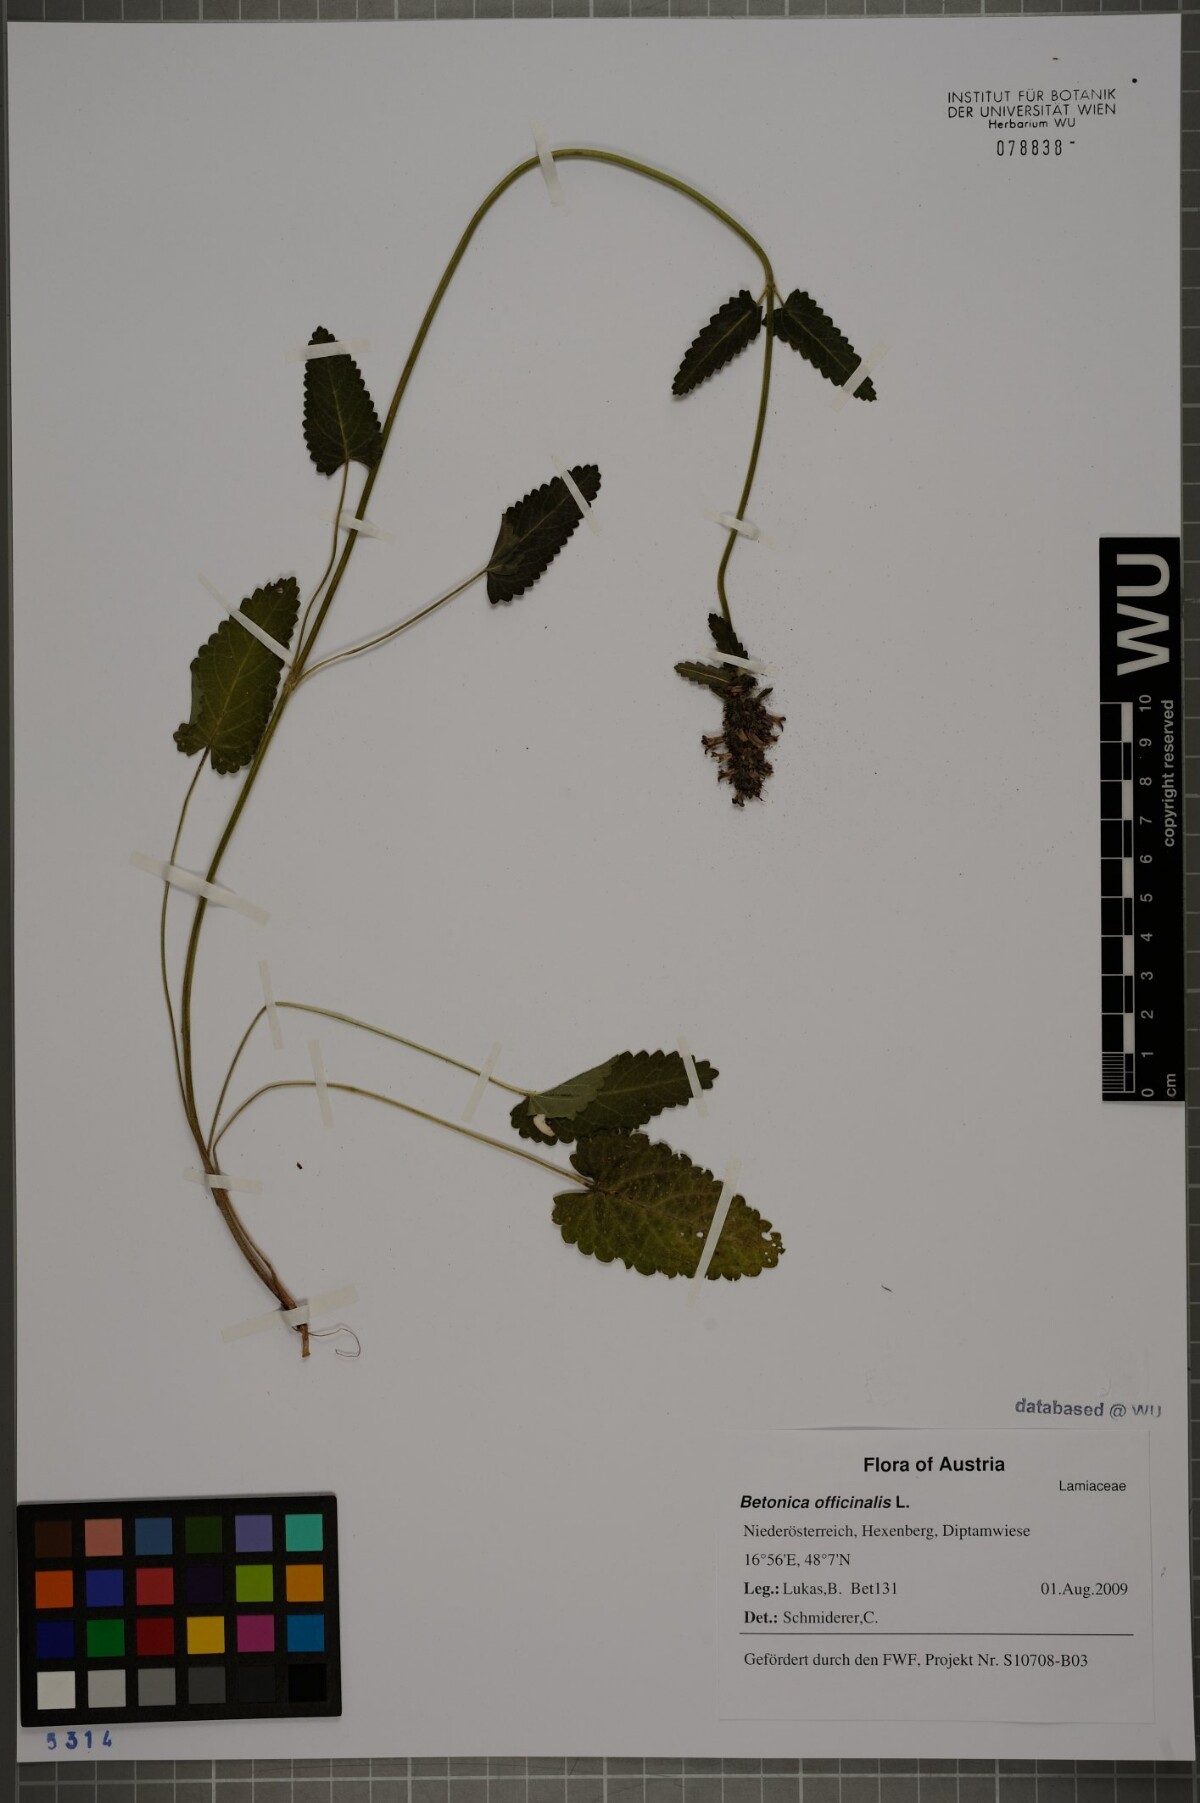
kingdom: Plantae
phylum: Tracheophyta
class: Magnoliopsida
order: Lamiales
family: Lamiaceae
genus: Betonica
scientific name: Betonica officinalis
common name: Bishop's-wort
